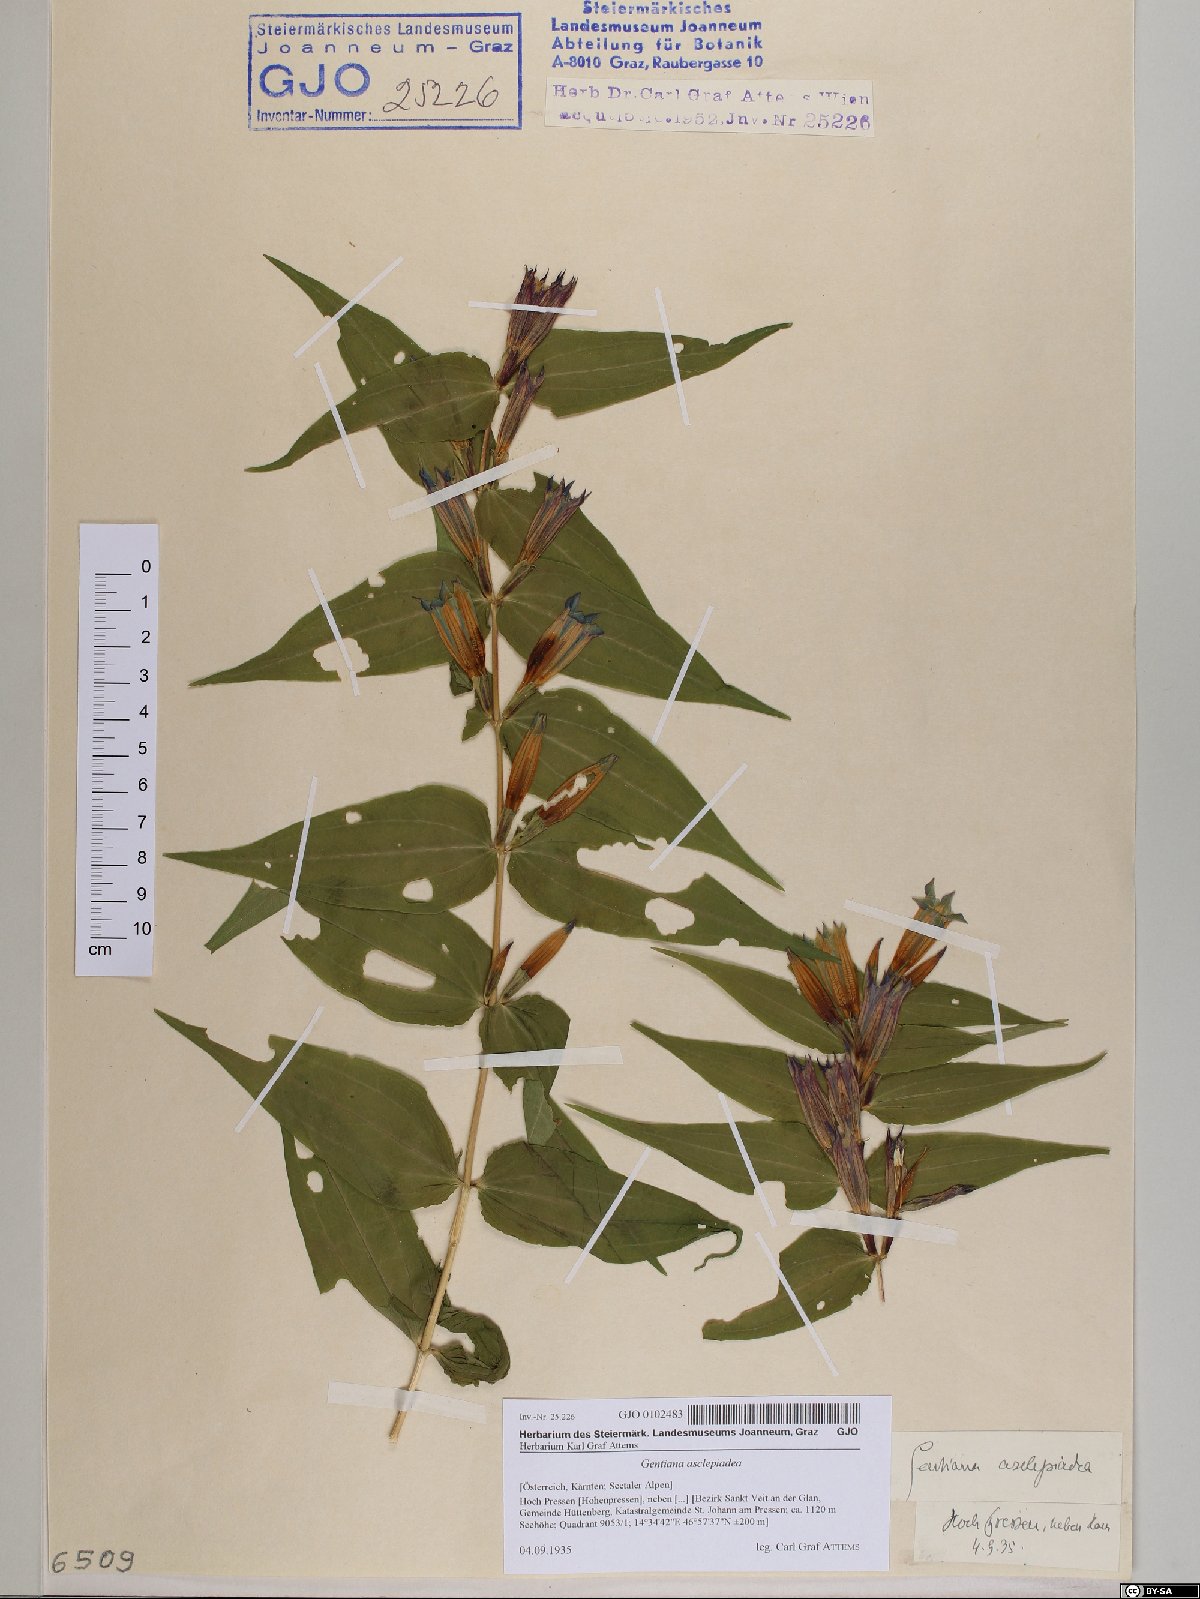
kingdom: Plantae
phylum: Tracheophyta
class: Magnoliopsida
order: Gentianales
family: Gentianaceae
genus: Gentiana
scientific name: Gentiana asclepiadea
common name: Willow gentian
